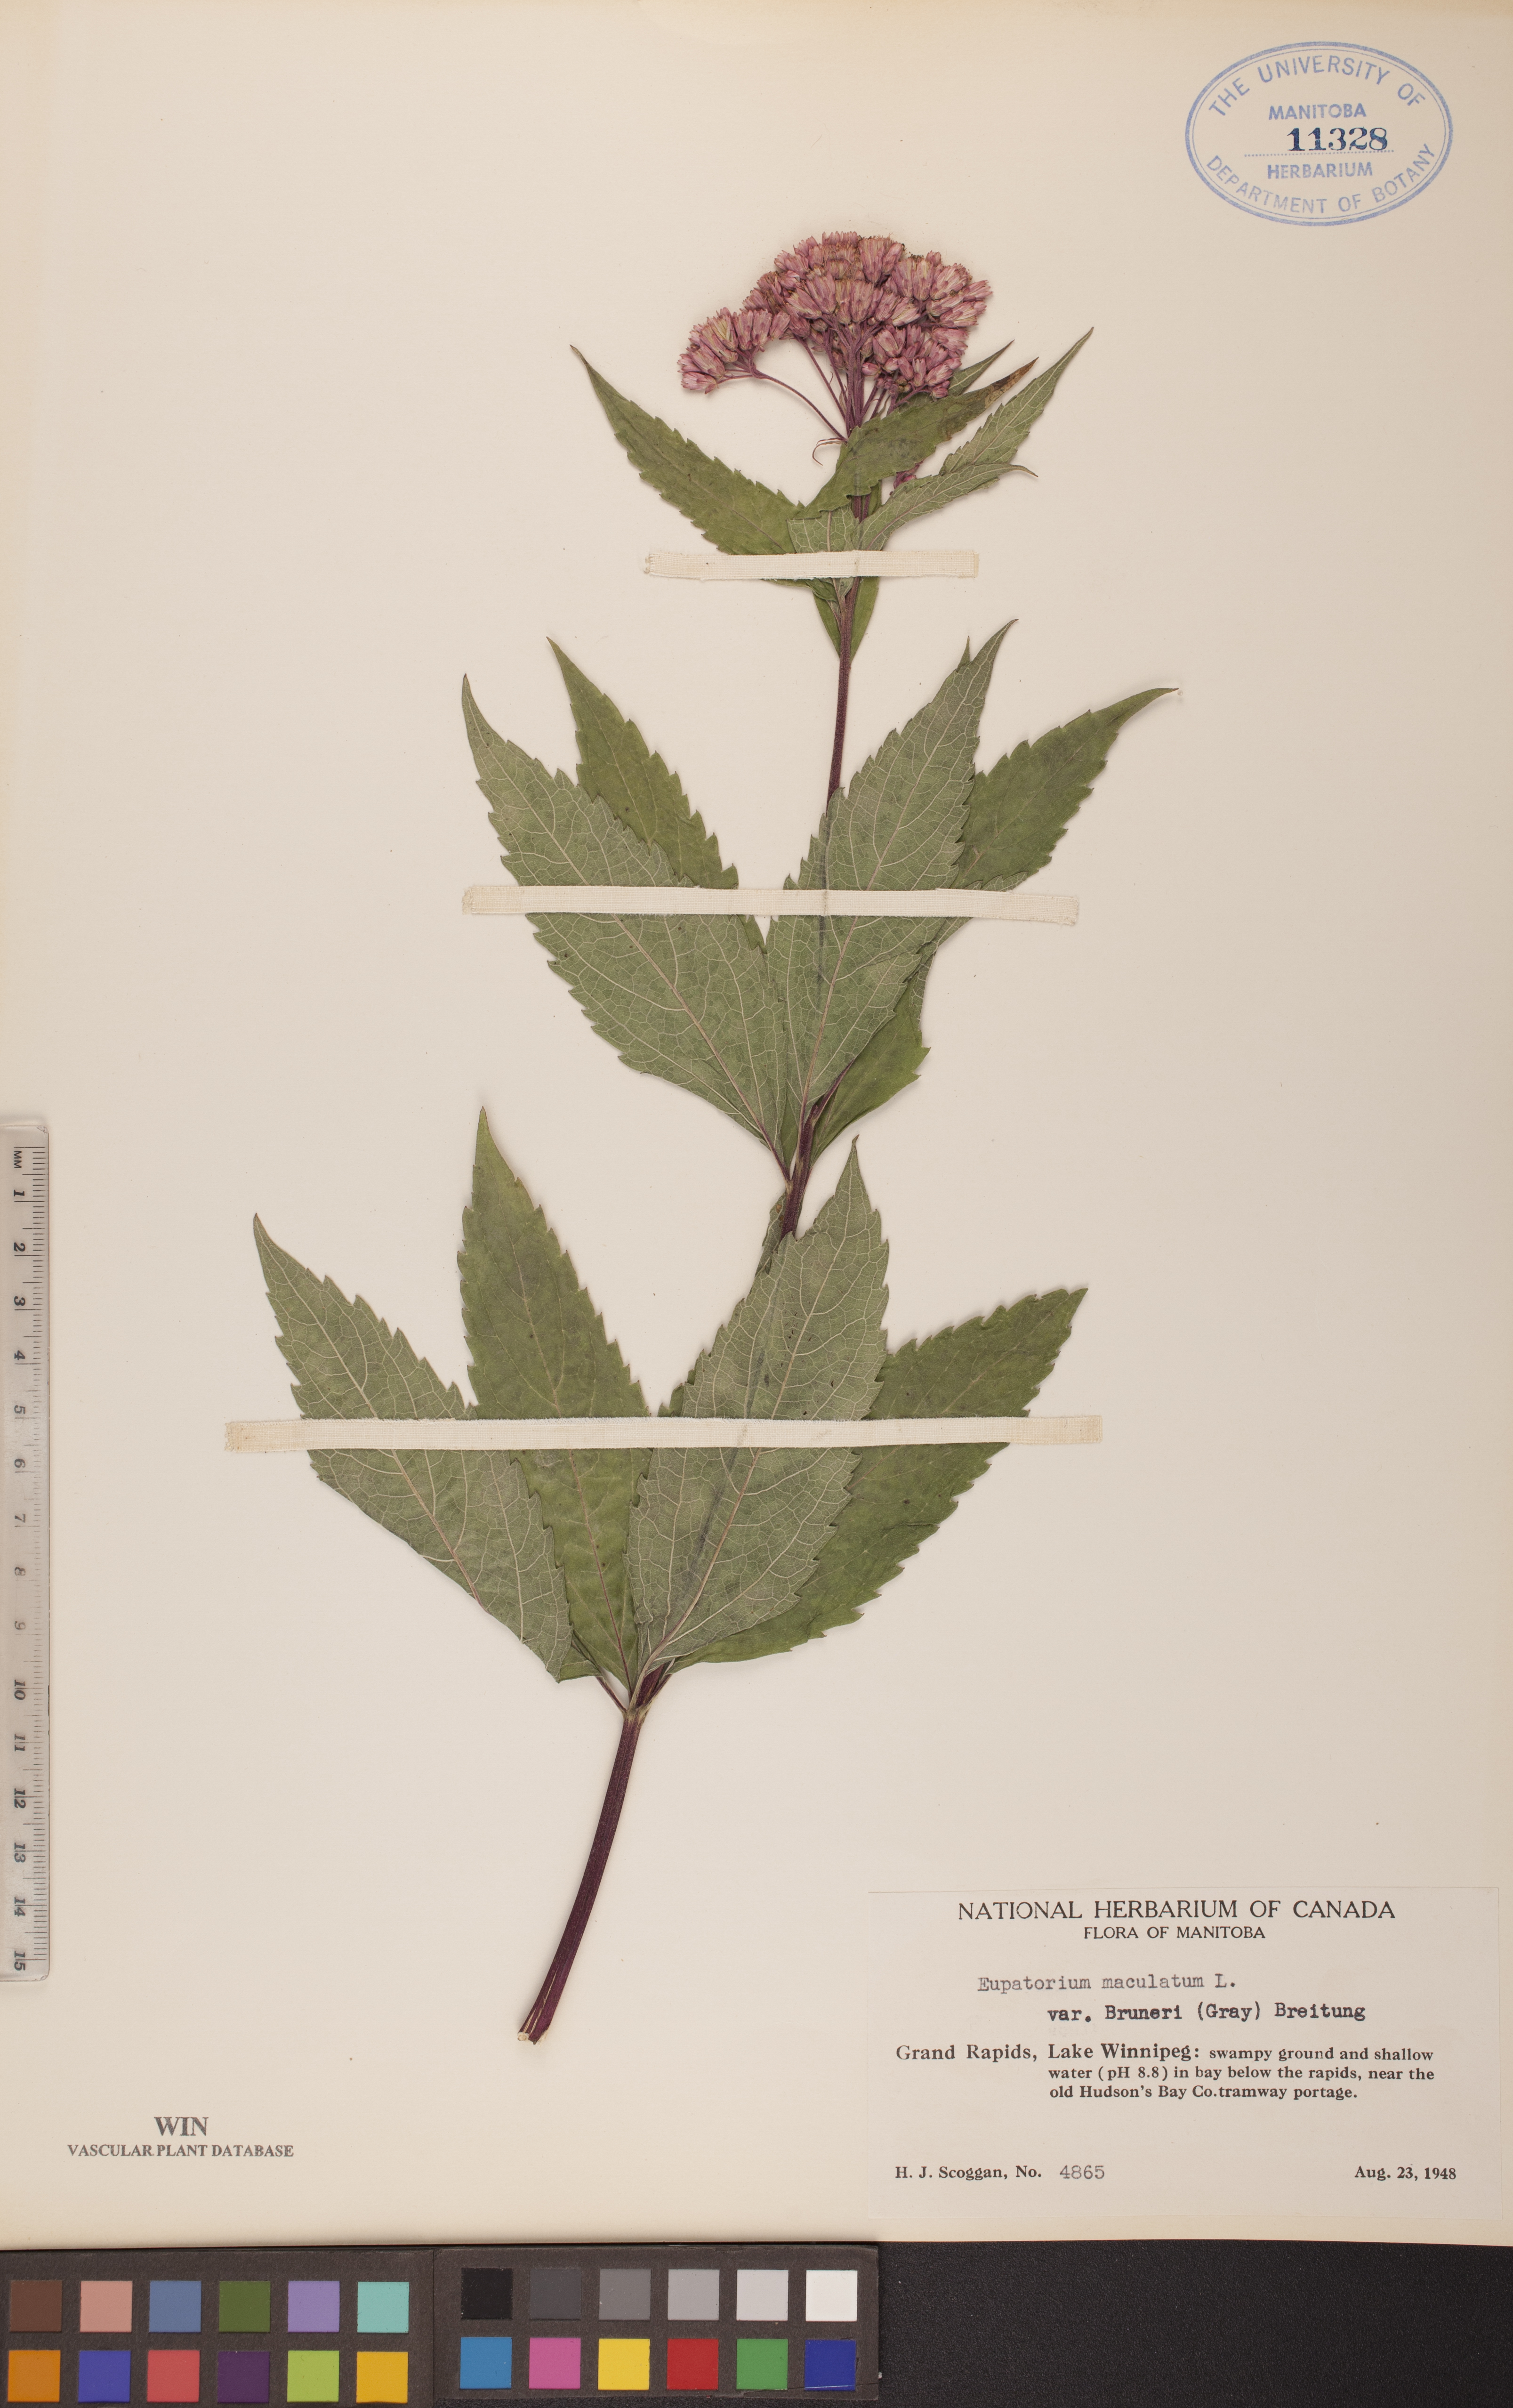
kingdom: Plantae
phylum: Tracheophyta
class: Magnoliopsida
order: Asterales
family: Asteraceae
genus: Eutrochium
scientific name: Eutrochium maculatum
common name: Spotted joe pye weed
